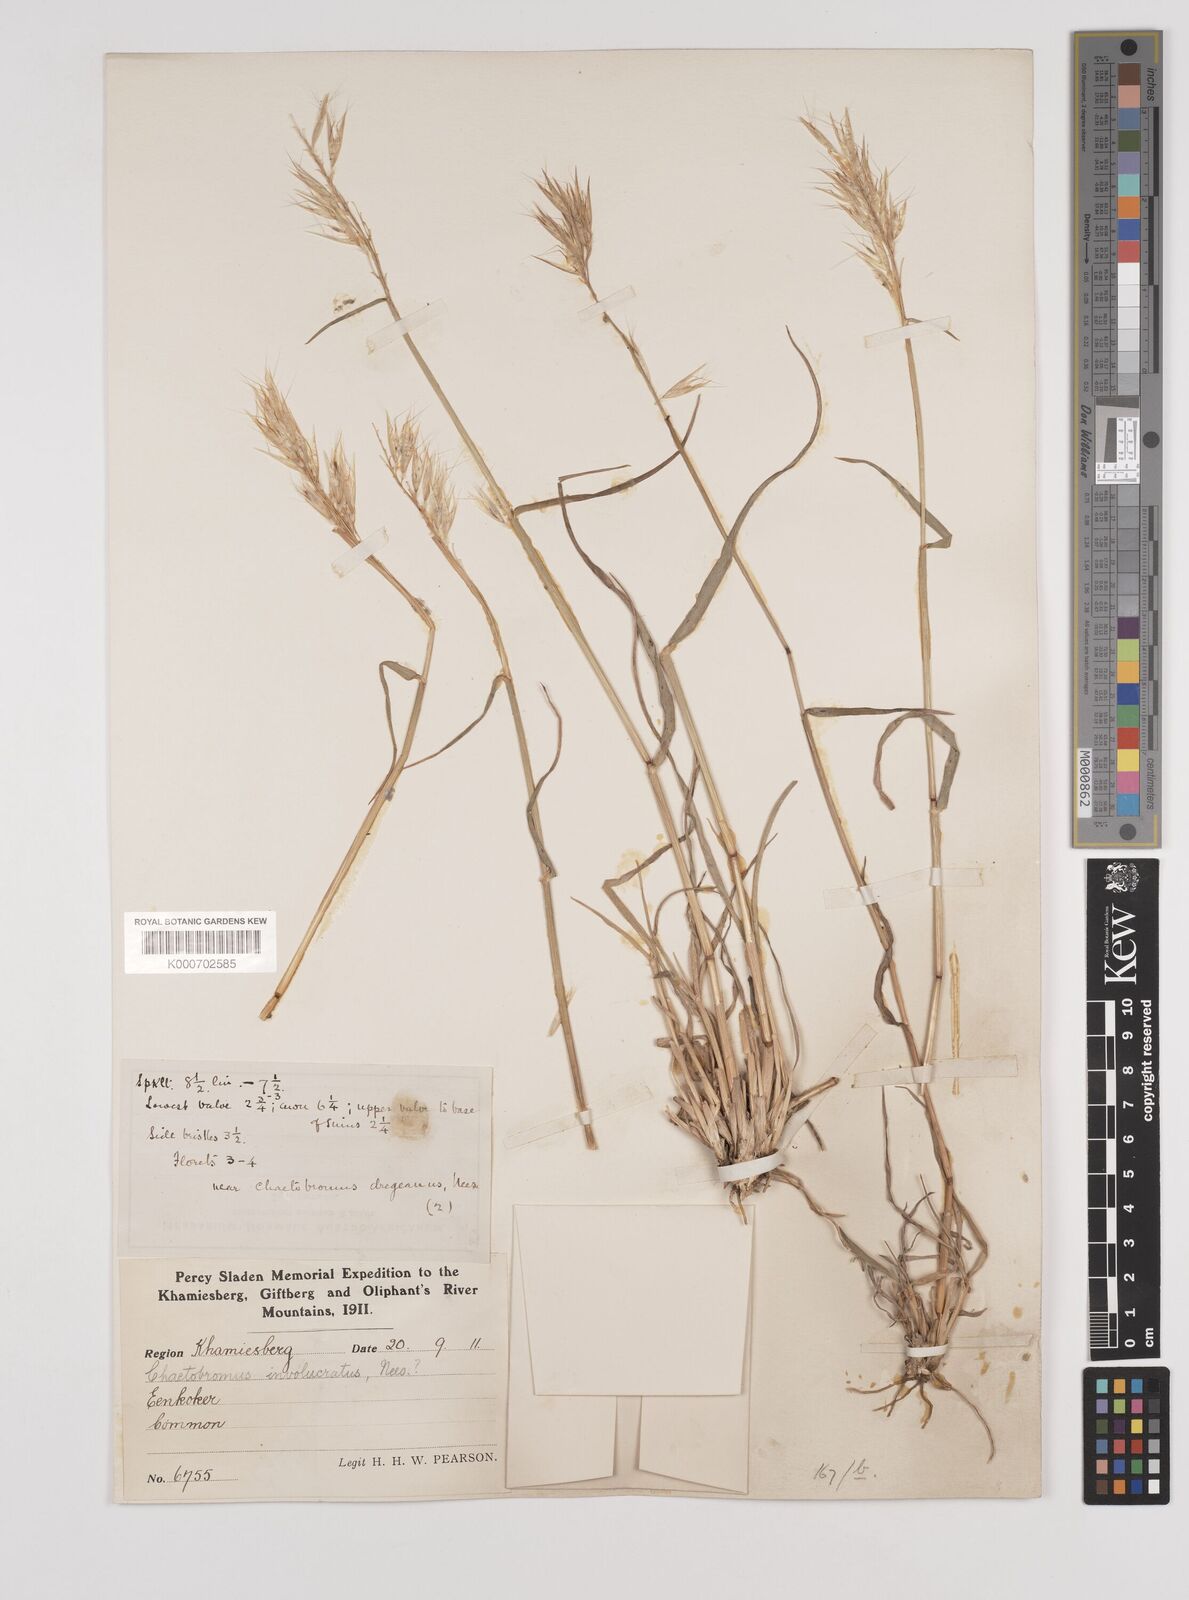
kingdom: Plantae
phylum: Tracheophyta
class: Liliopsida
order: Poales
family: Poaceae
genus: Chaetobromus
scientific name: Chaetobromus involucratus
